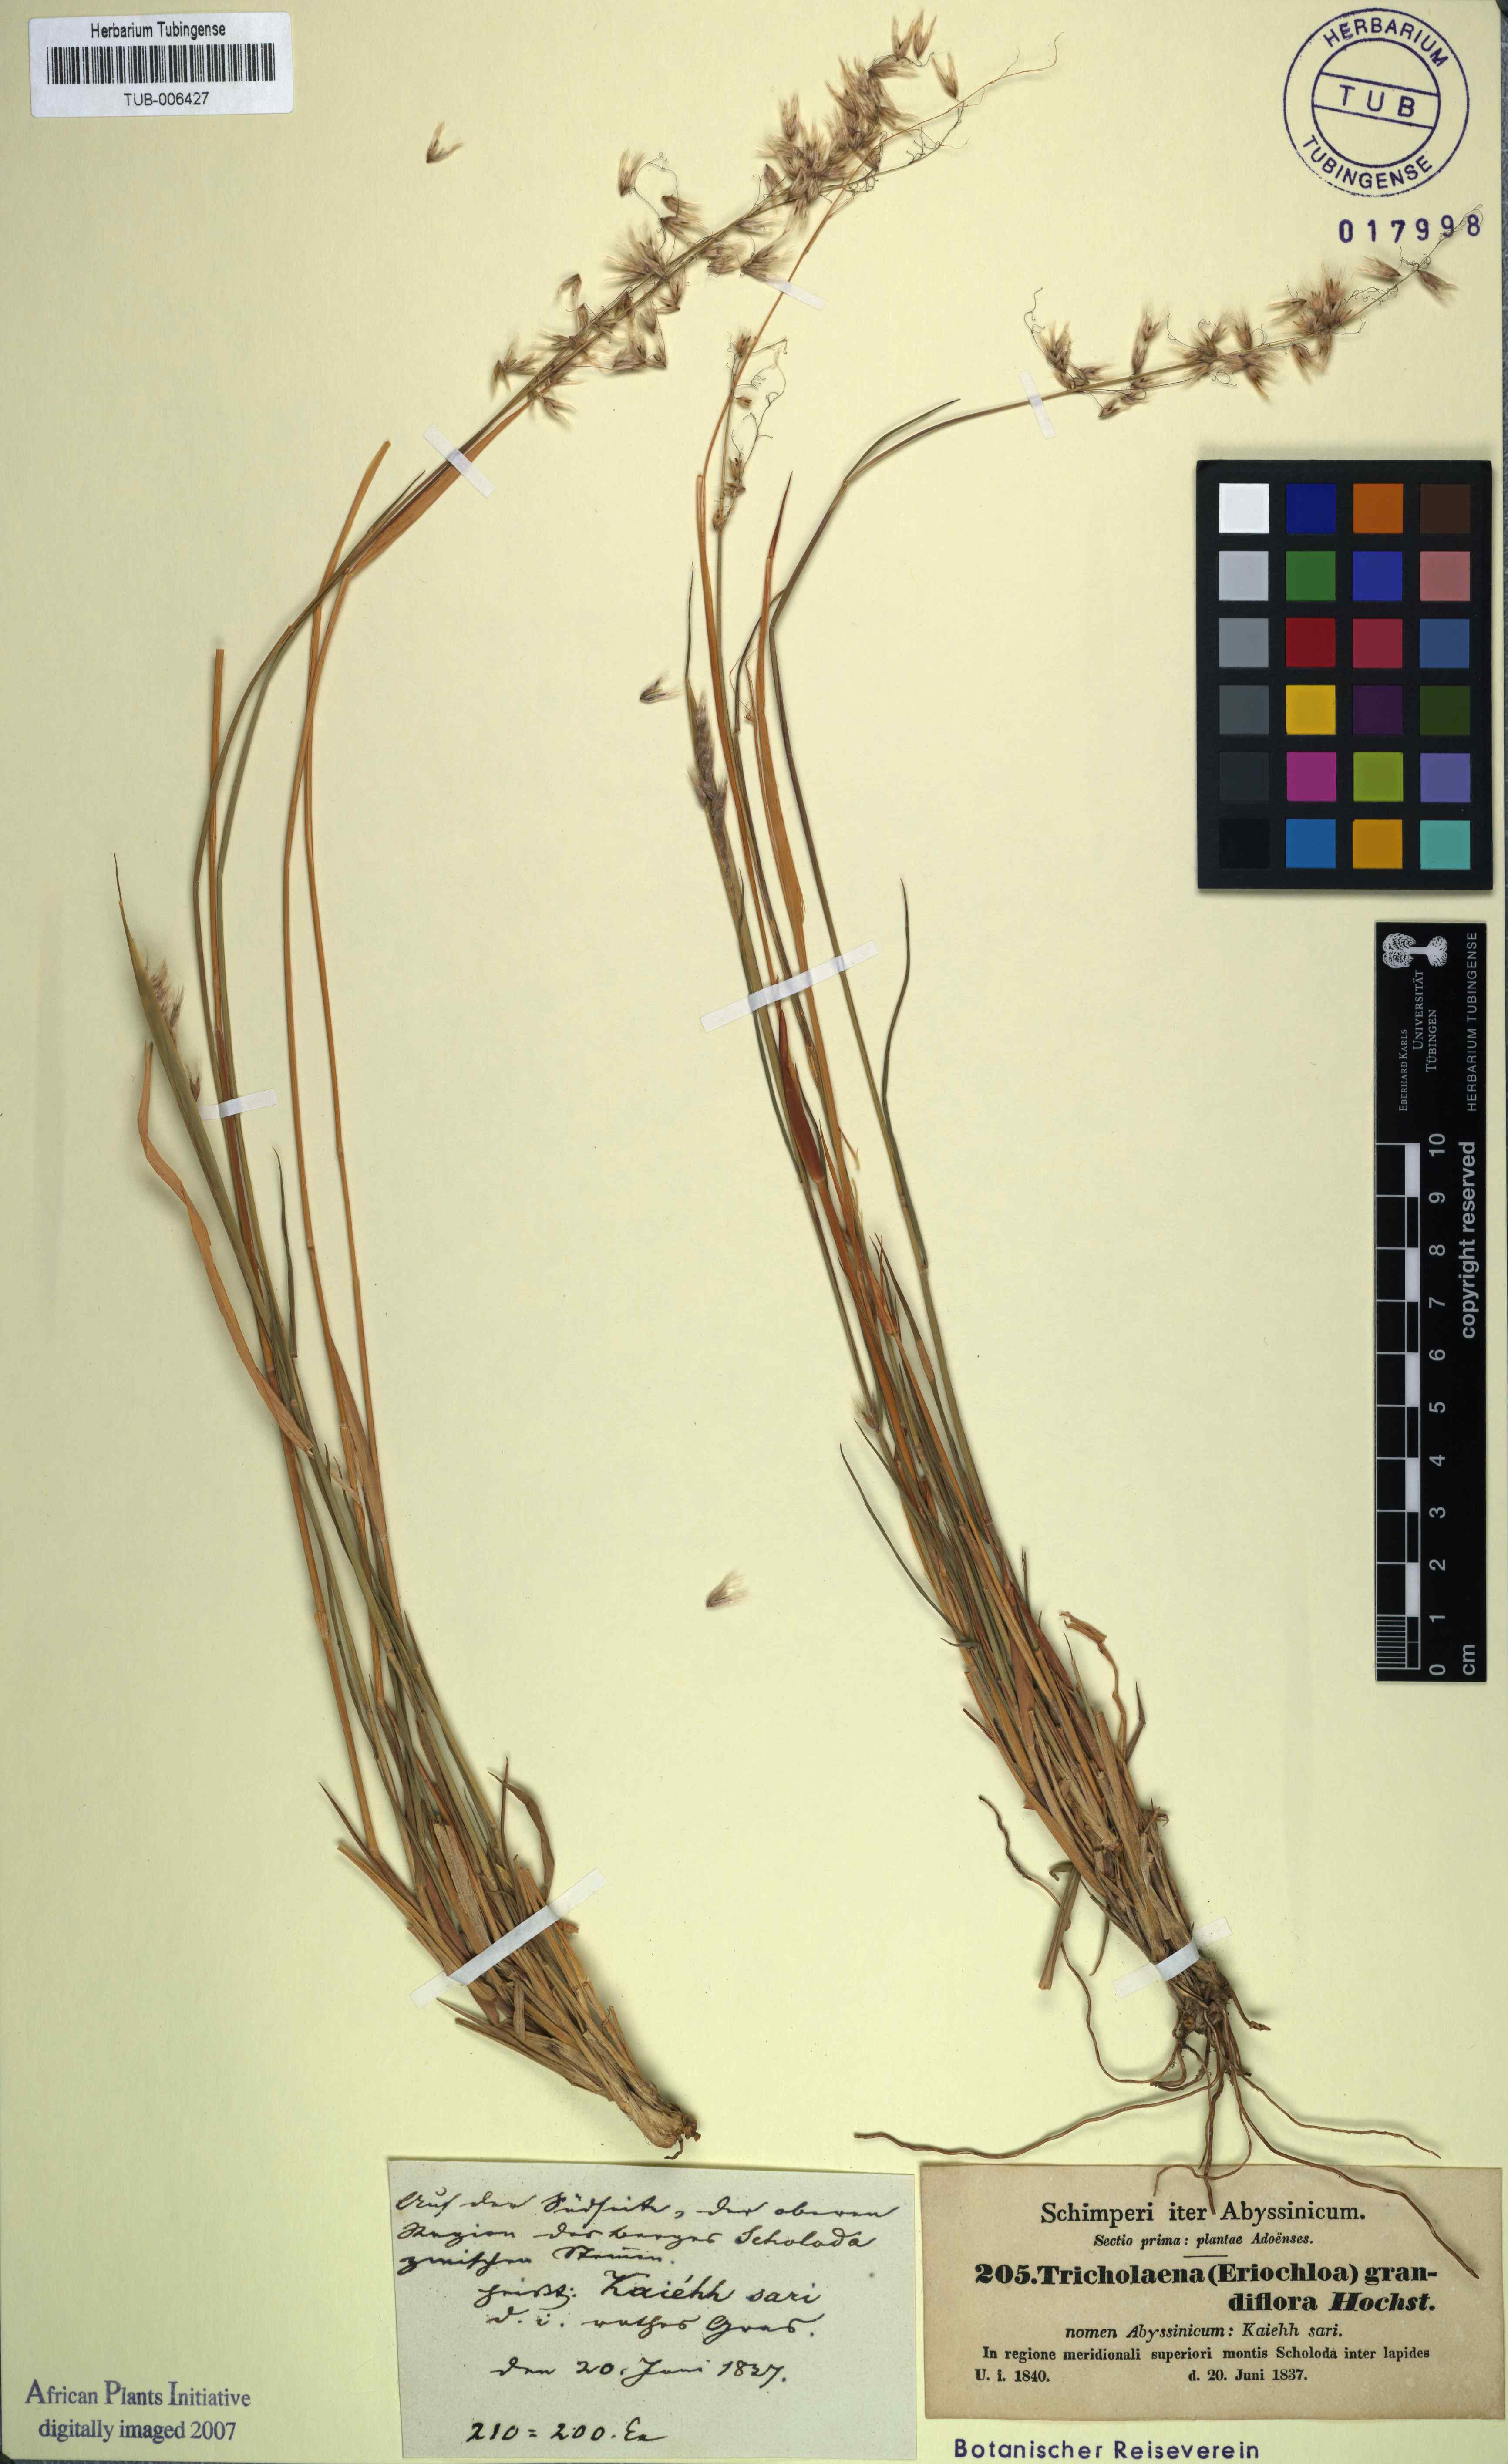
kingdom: Plantae
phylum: Tracheophyta
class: Liliopsida
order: Poales
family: Poaceae
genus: Melinis
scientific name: Melinis repens
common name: Rose natal grass
